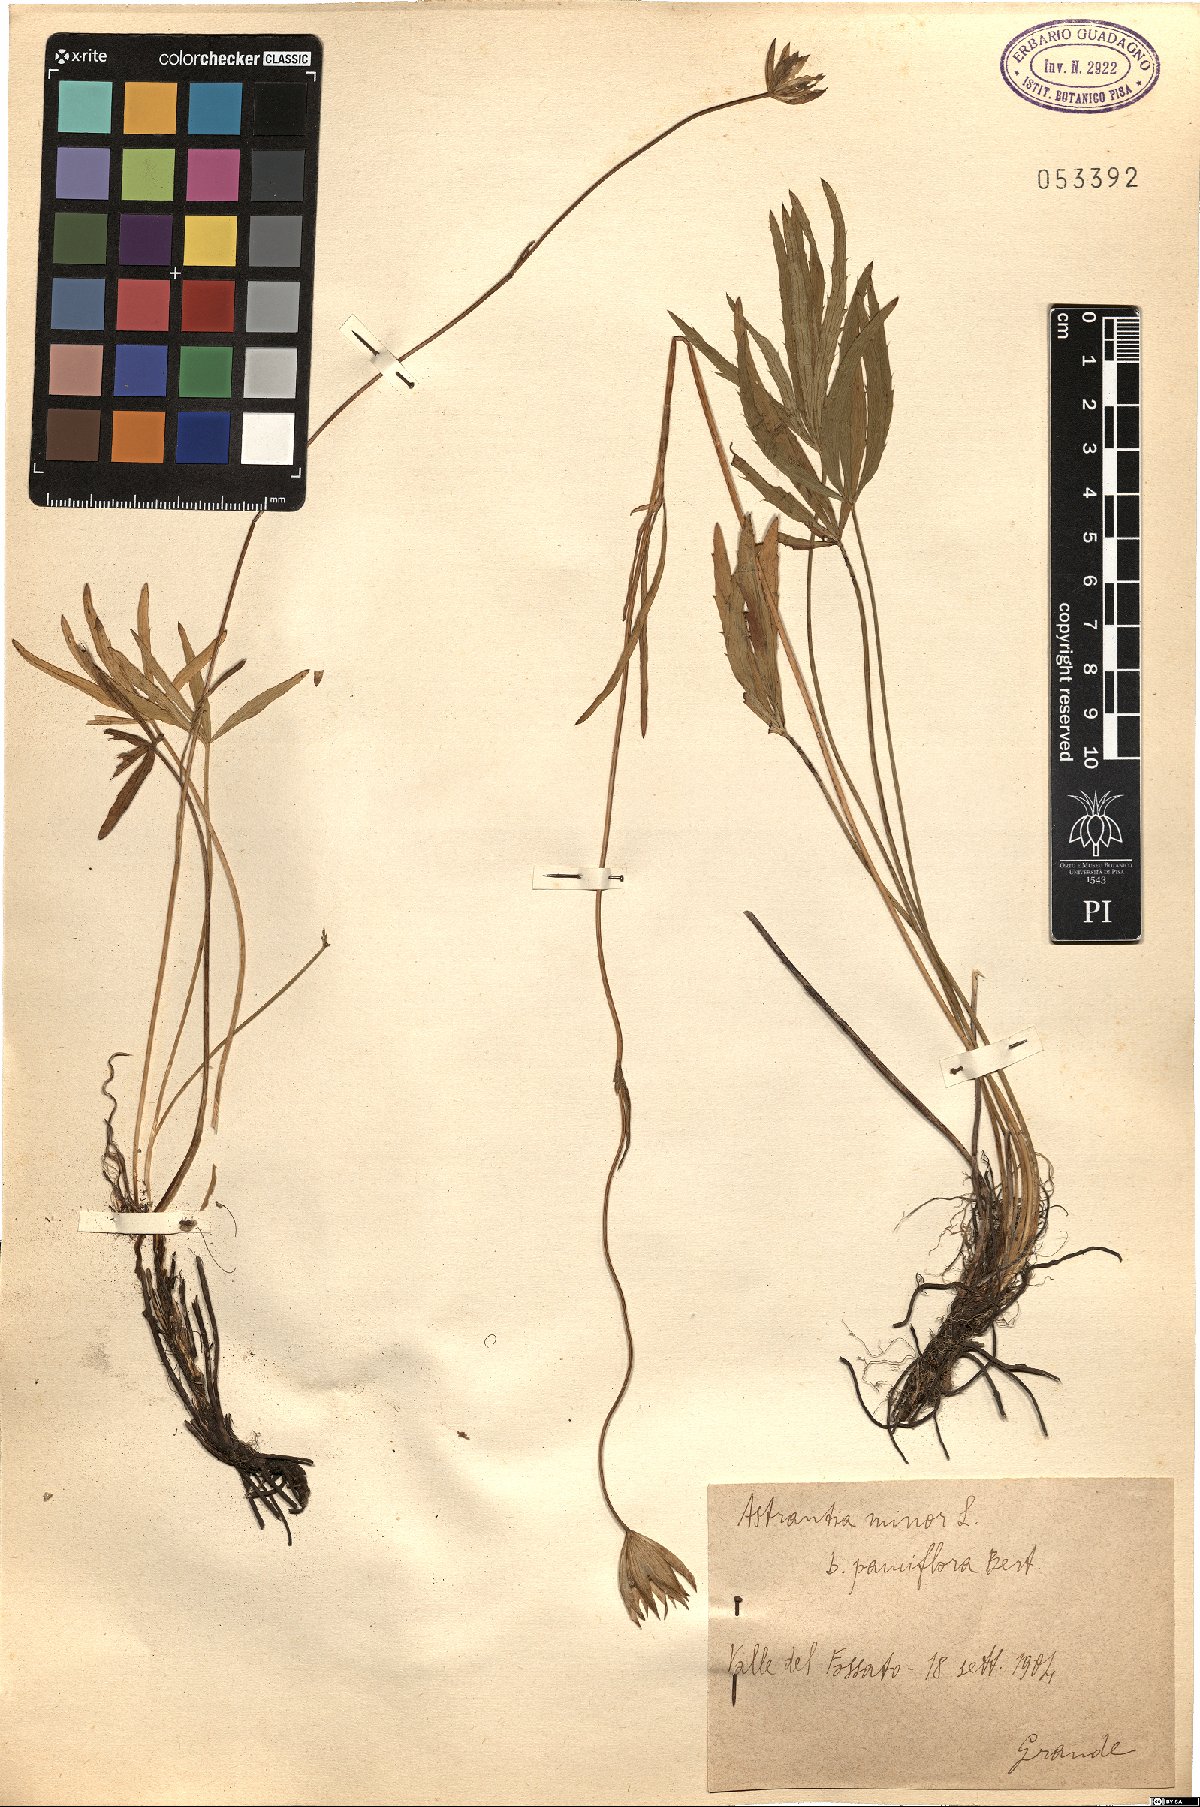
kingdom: Plantae
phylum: Tracheophyta
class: Magnoliopsida
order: Apiales
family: Apiaceae
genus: Astrantia
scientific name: Astrantia minor
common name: Lesser masterwort
